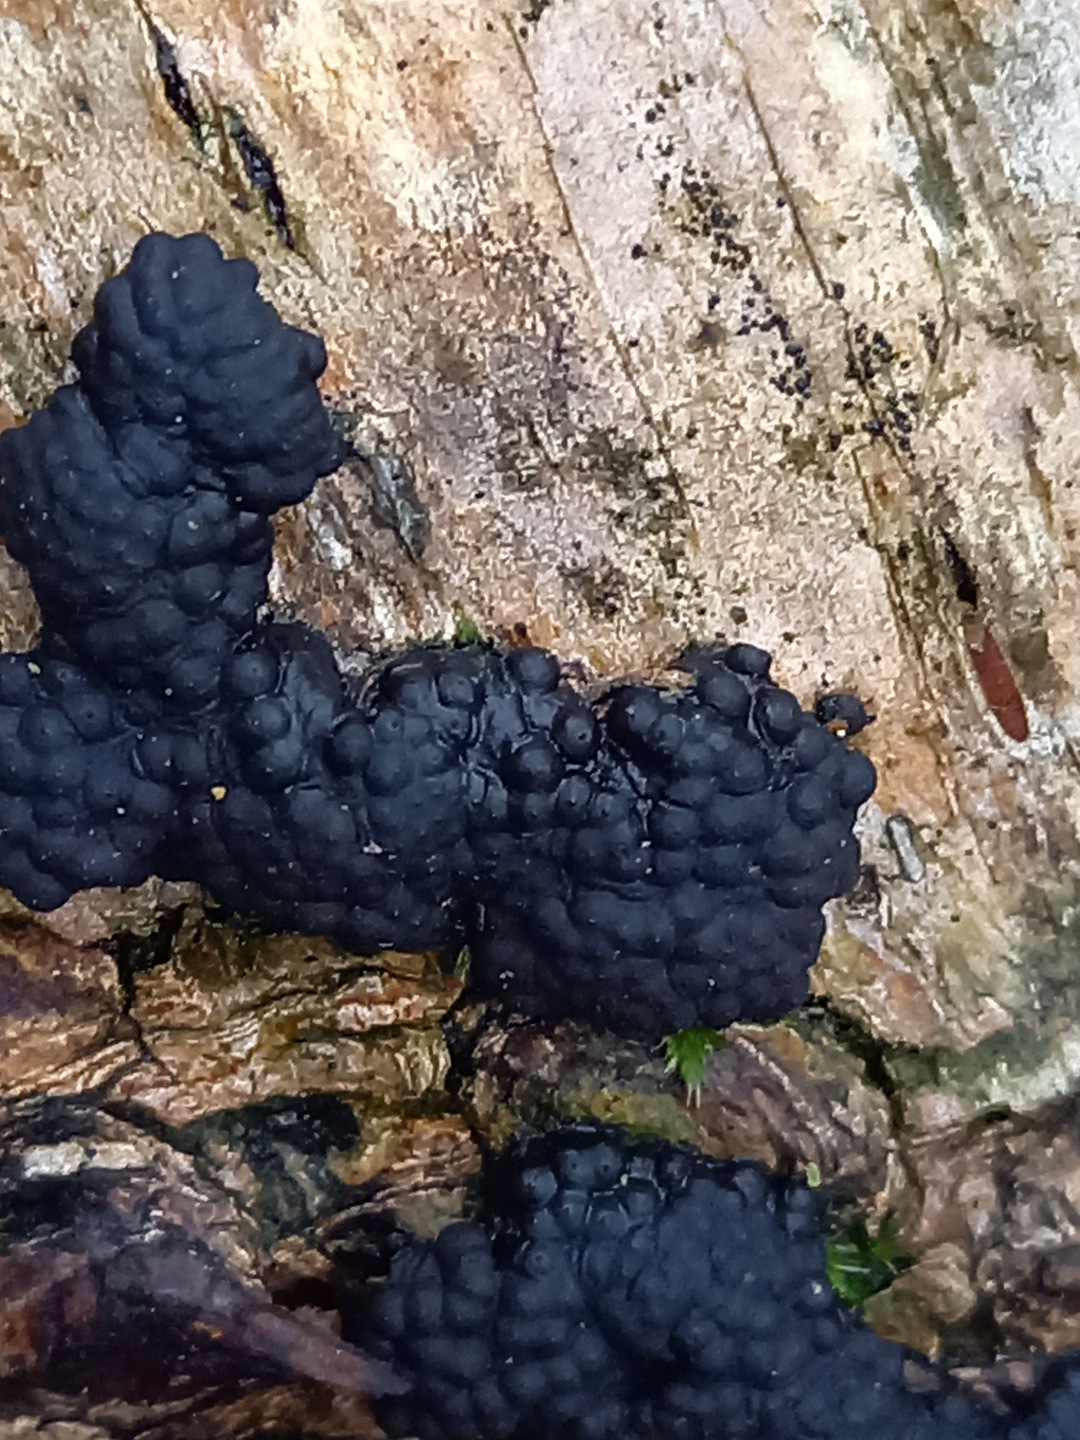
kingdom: Fungi
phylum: Ascomycota
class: Sordariomycetes
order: Xylariales
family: Hypoxylaceae
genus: Jackrogersella
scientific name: Jackrogersella multiformis
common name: foranderlig kulbær
